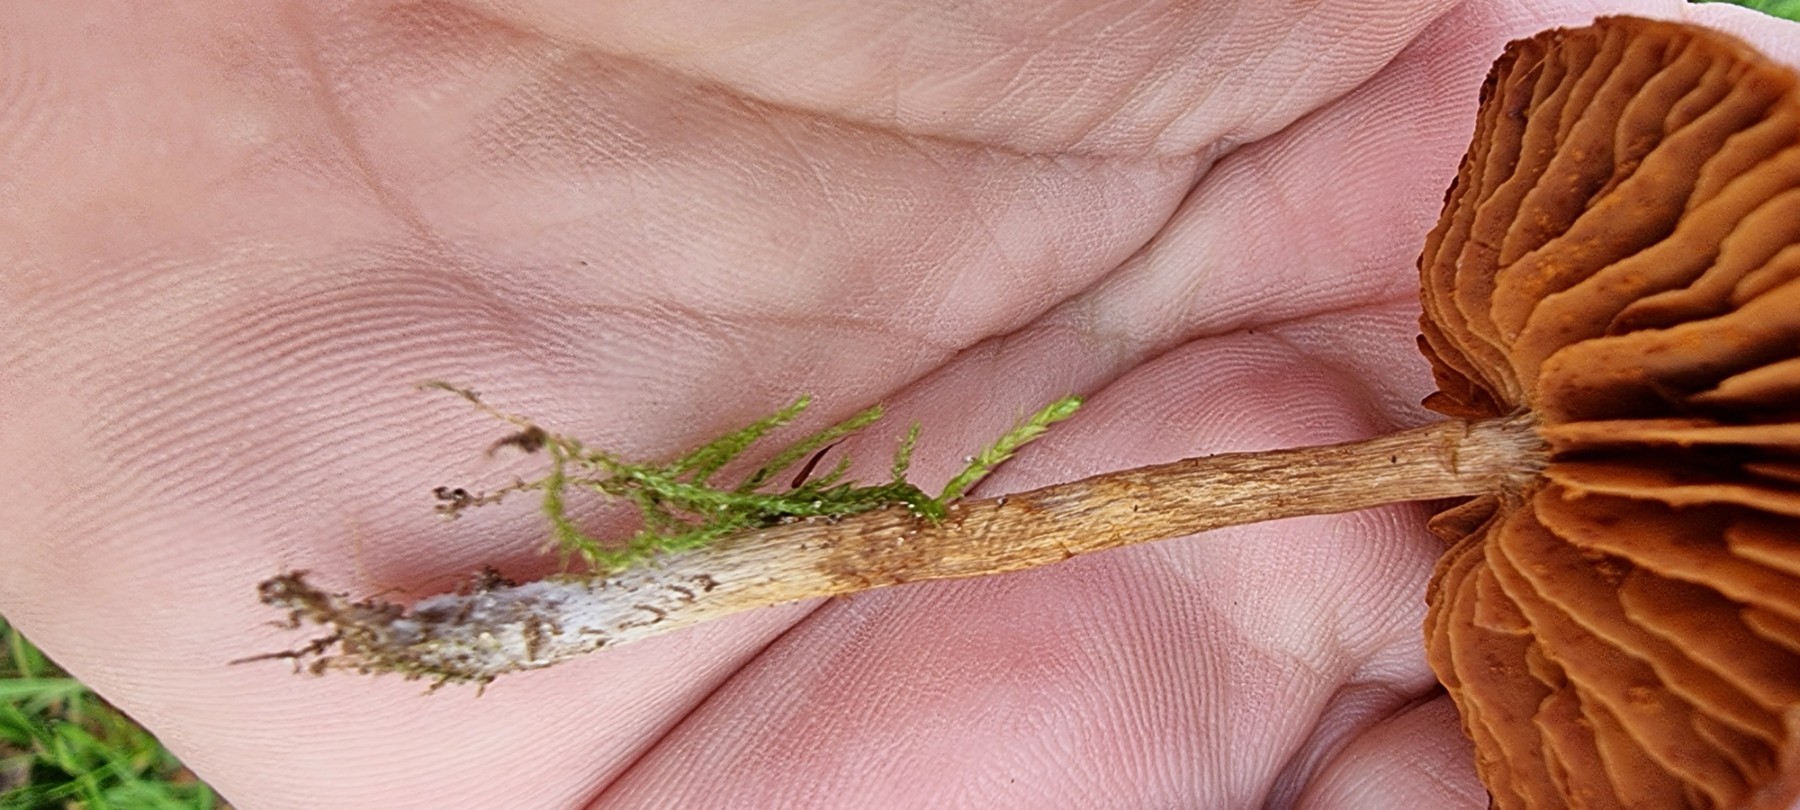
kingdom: Fungi
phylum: Basidiomycota
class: Agaricomycetes
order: Agaricales
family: Cortinariaceae
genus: Cortinarius
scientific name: Cortinarius
